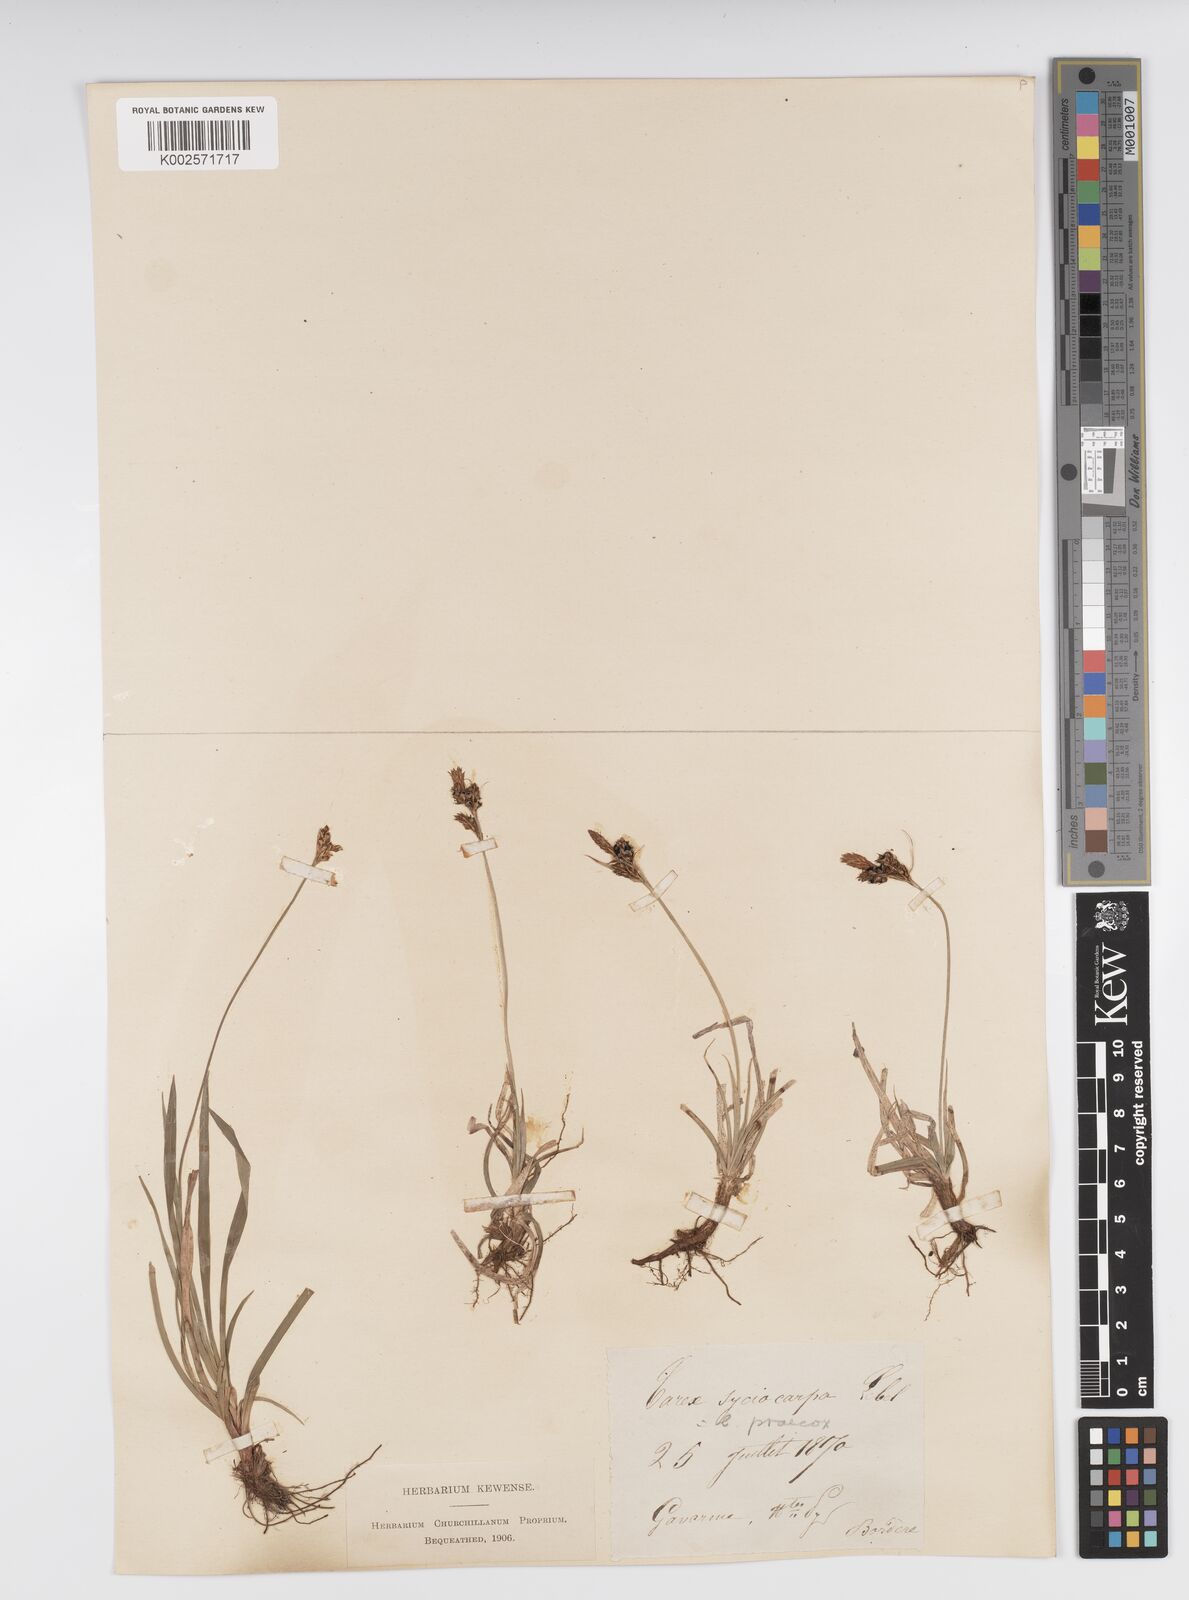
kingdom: Plantae
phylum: Tracheophyta
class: Liliopsida
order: Poales
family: Cyperaceae
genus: Carex
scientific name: Carex caryophyllea
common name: Spring sedge
